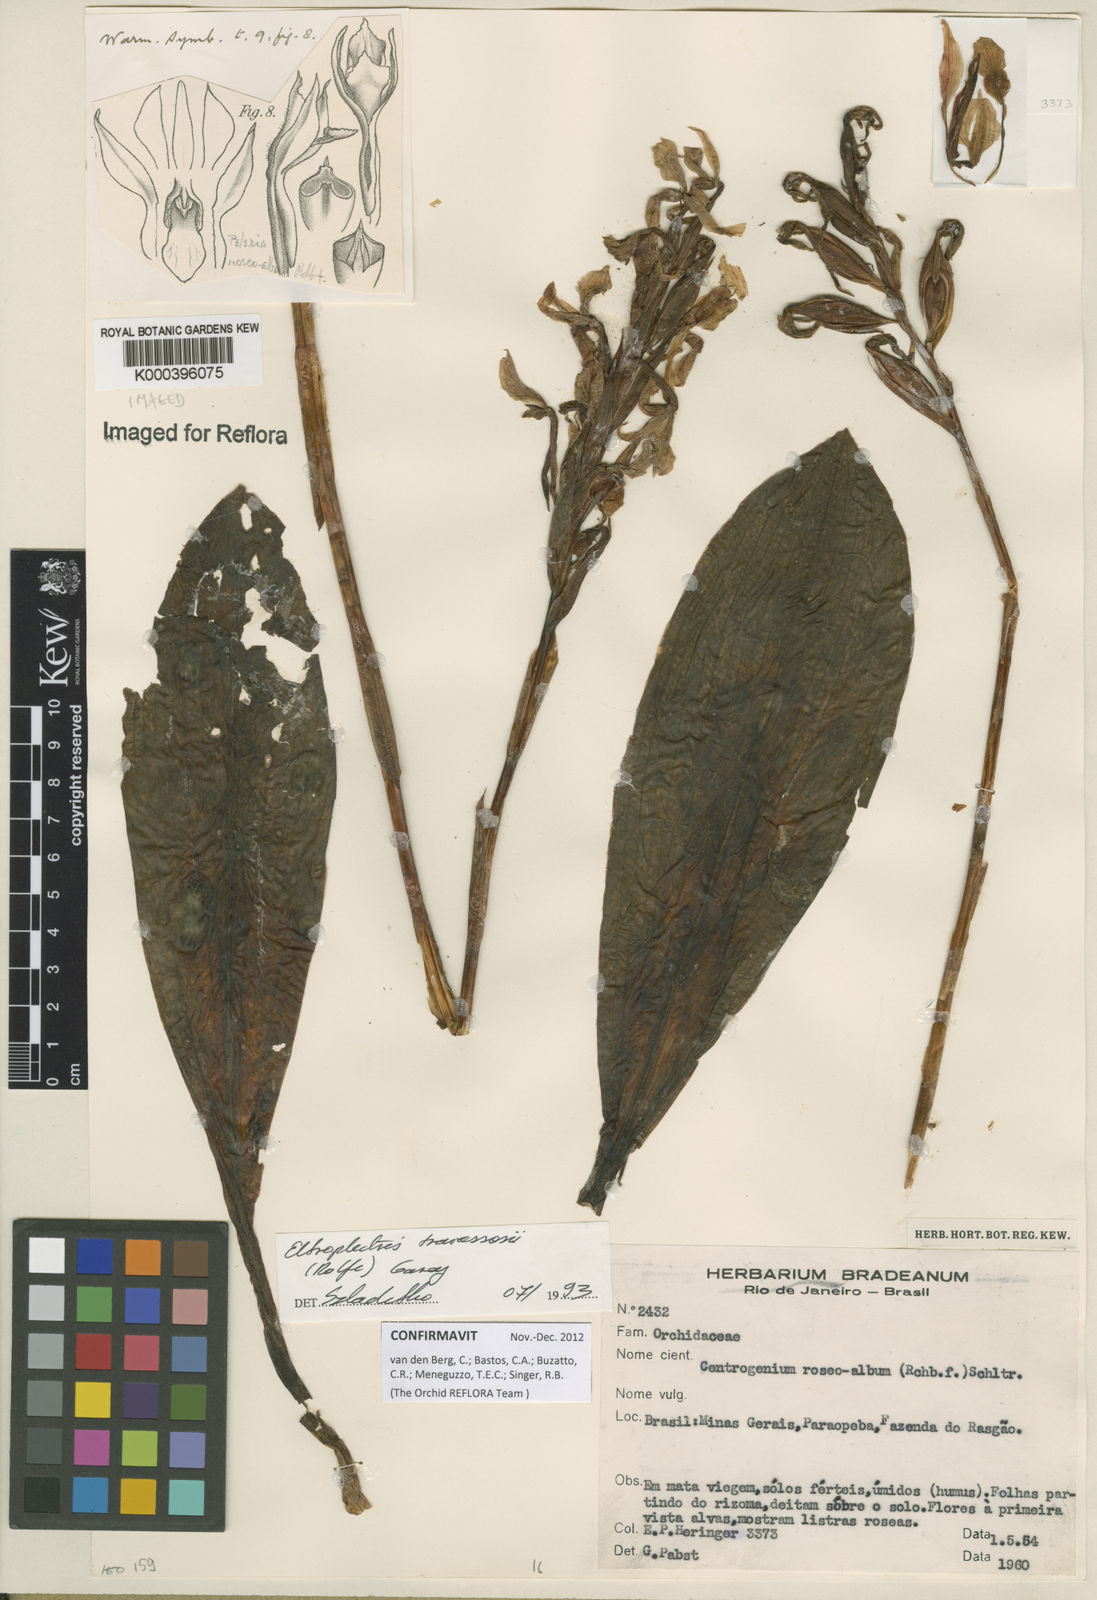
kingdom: Plantae
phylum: Tracheophyta
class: Liliopsida
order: Asparagales
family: Orchidaceae
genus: Pteroglossa
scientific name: Pteroglossa roseoalba
